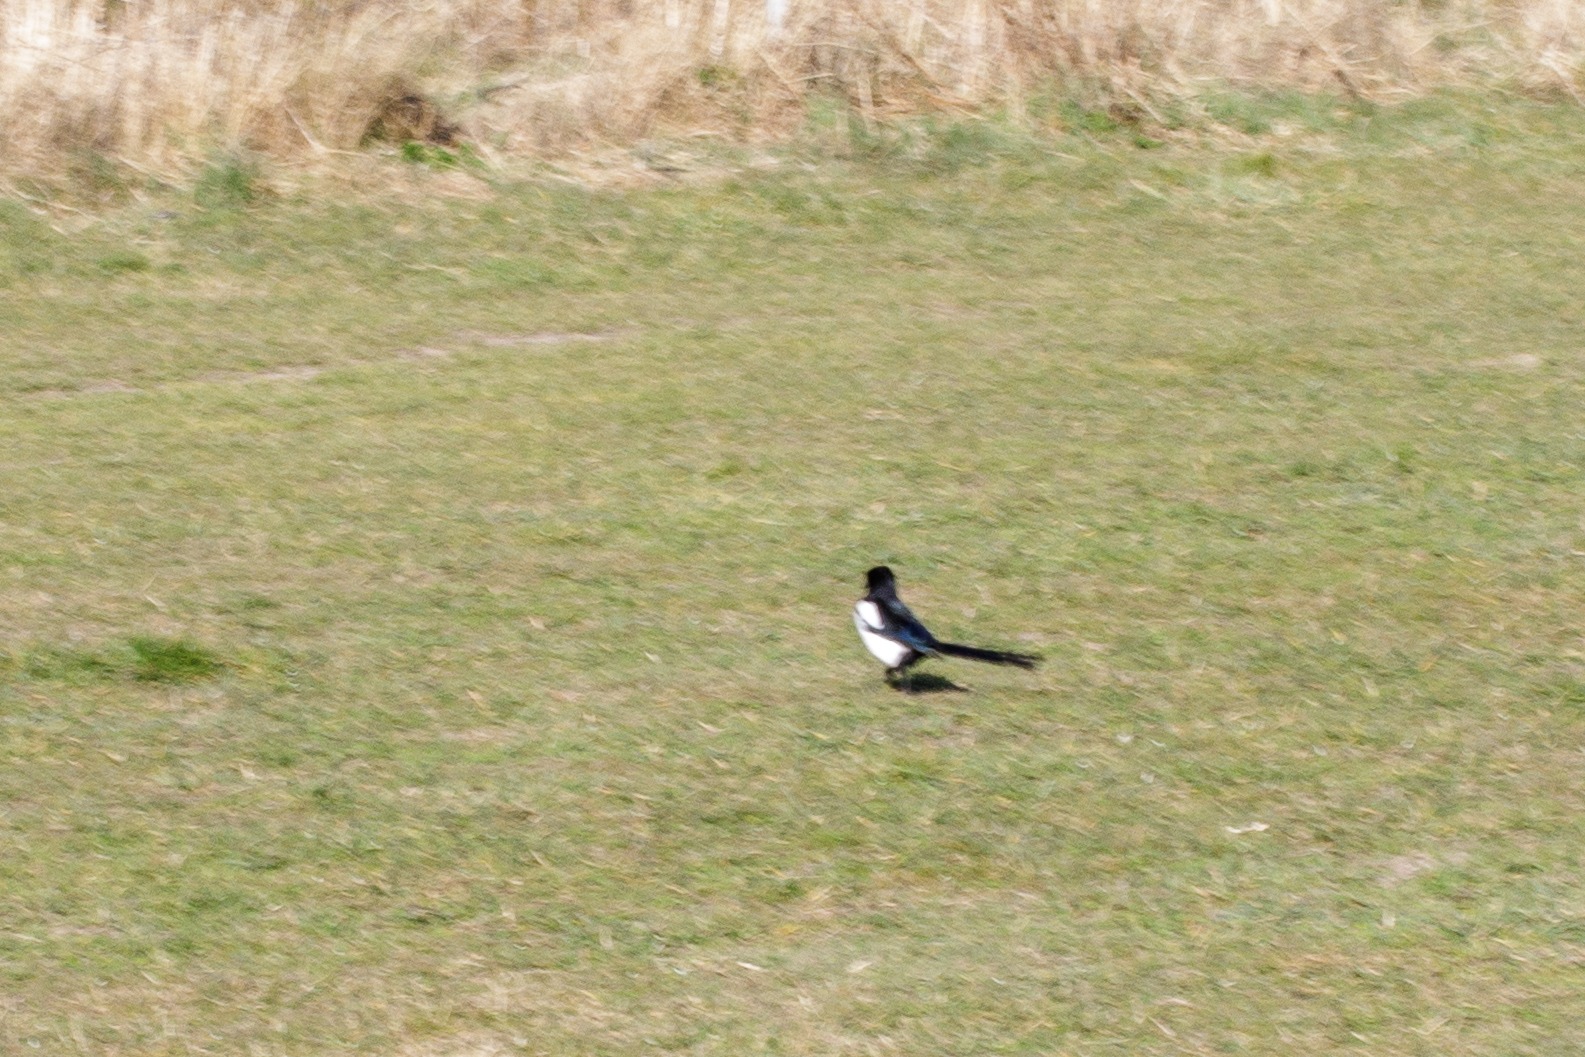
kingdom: Animalia
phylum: Chordata
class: Aves
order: Passeriformes
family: Corvidae
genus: Pica
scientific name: Pica pica
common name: Husskade
